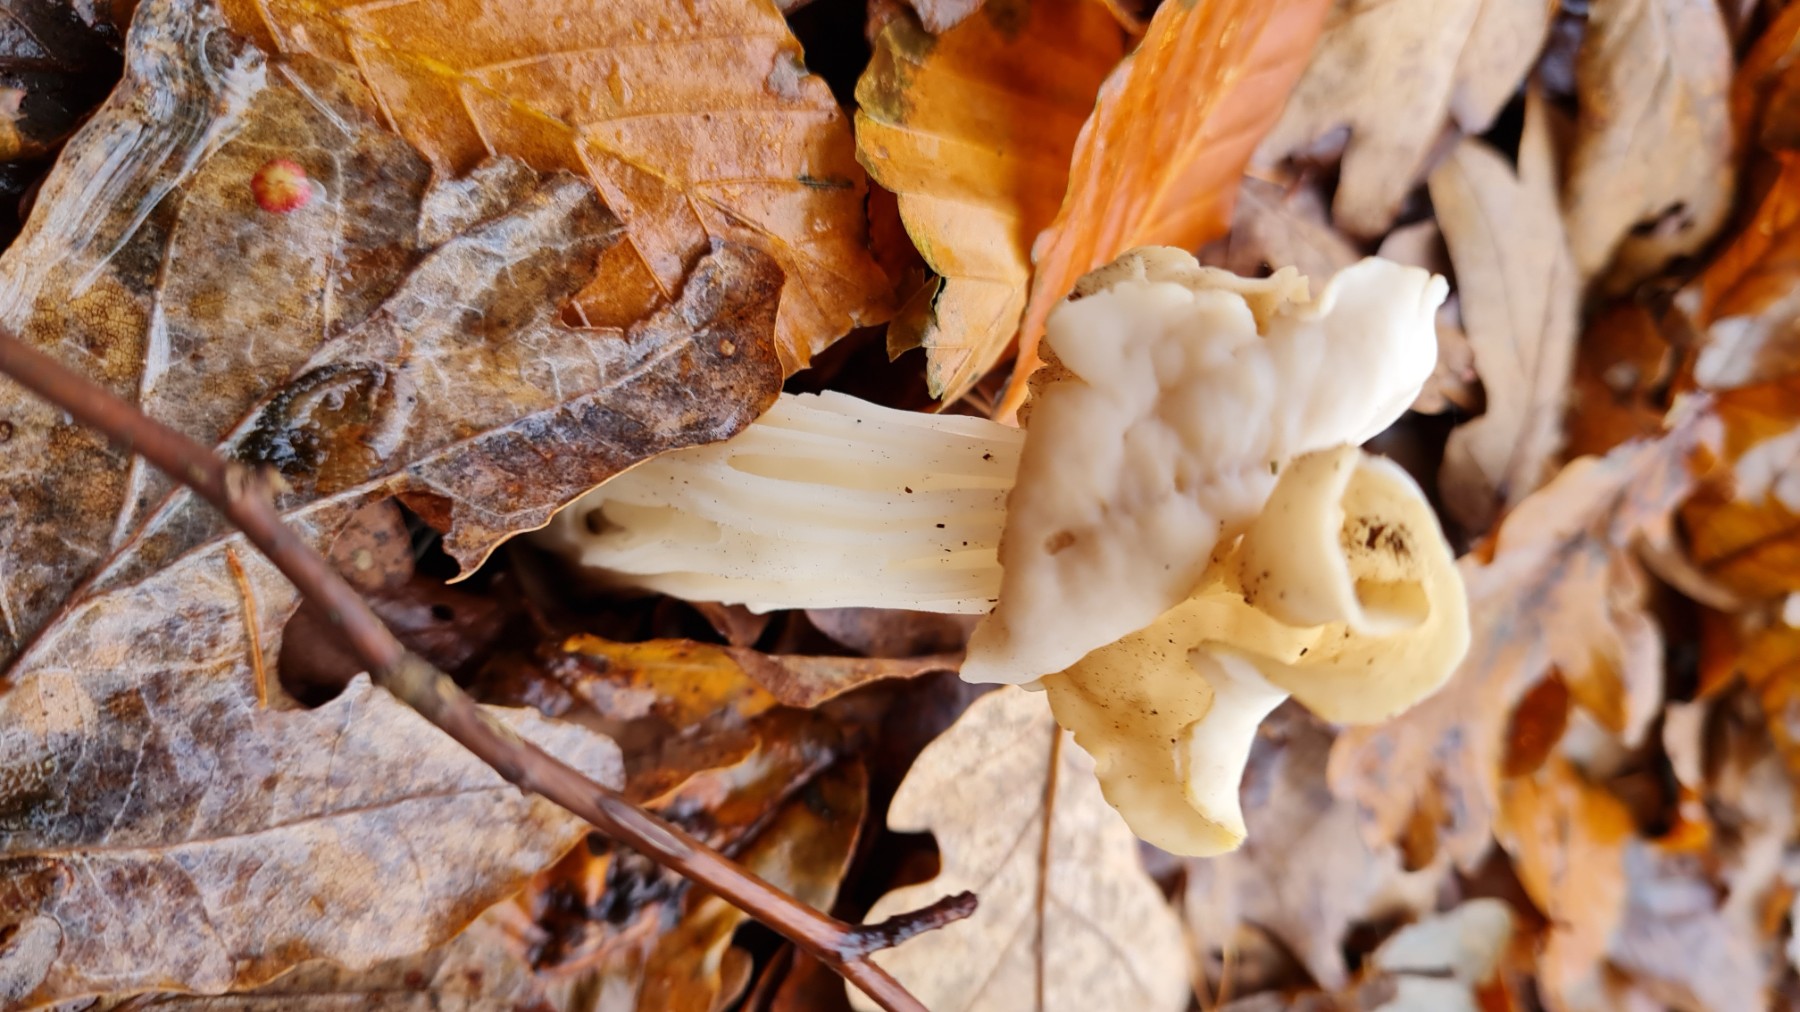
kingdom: Fungi
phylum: Ascomycota
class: Pezizomycetes
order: Pezizales
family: Helvellaceae
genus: Helvella
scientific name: Helvella crispa
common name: kruset foldhat
